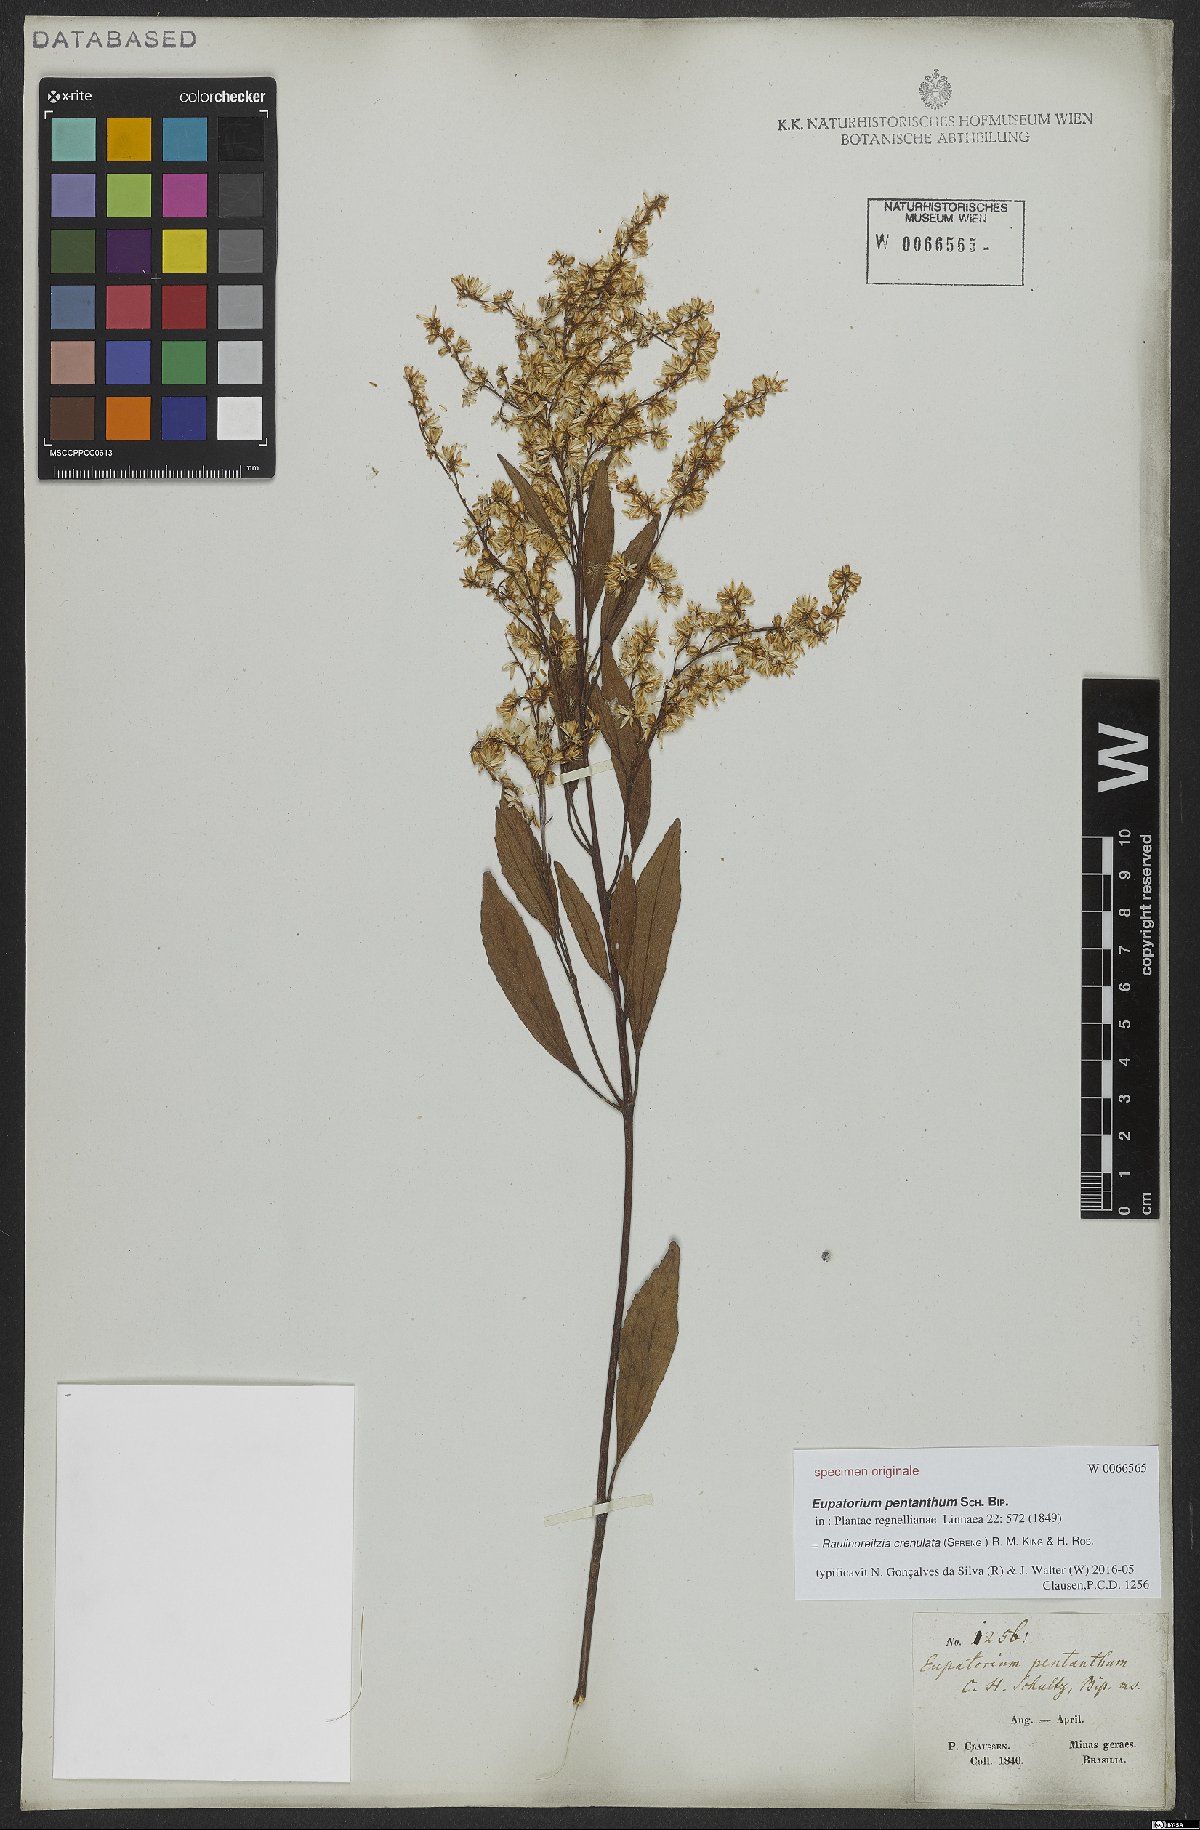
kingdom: Plantae
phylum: Tracheophyta
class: Magnoliopsida
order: Asterales
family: Asteraceae
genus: Raulinoreitzia
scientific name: Raulinoreitzia crenulata
